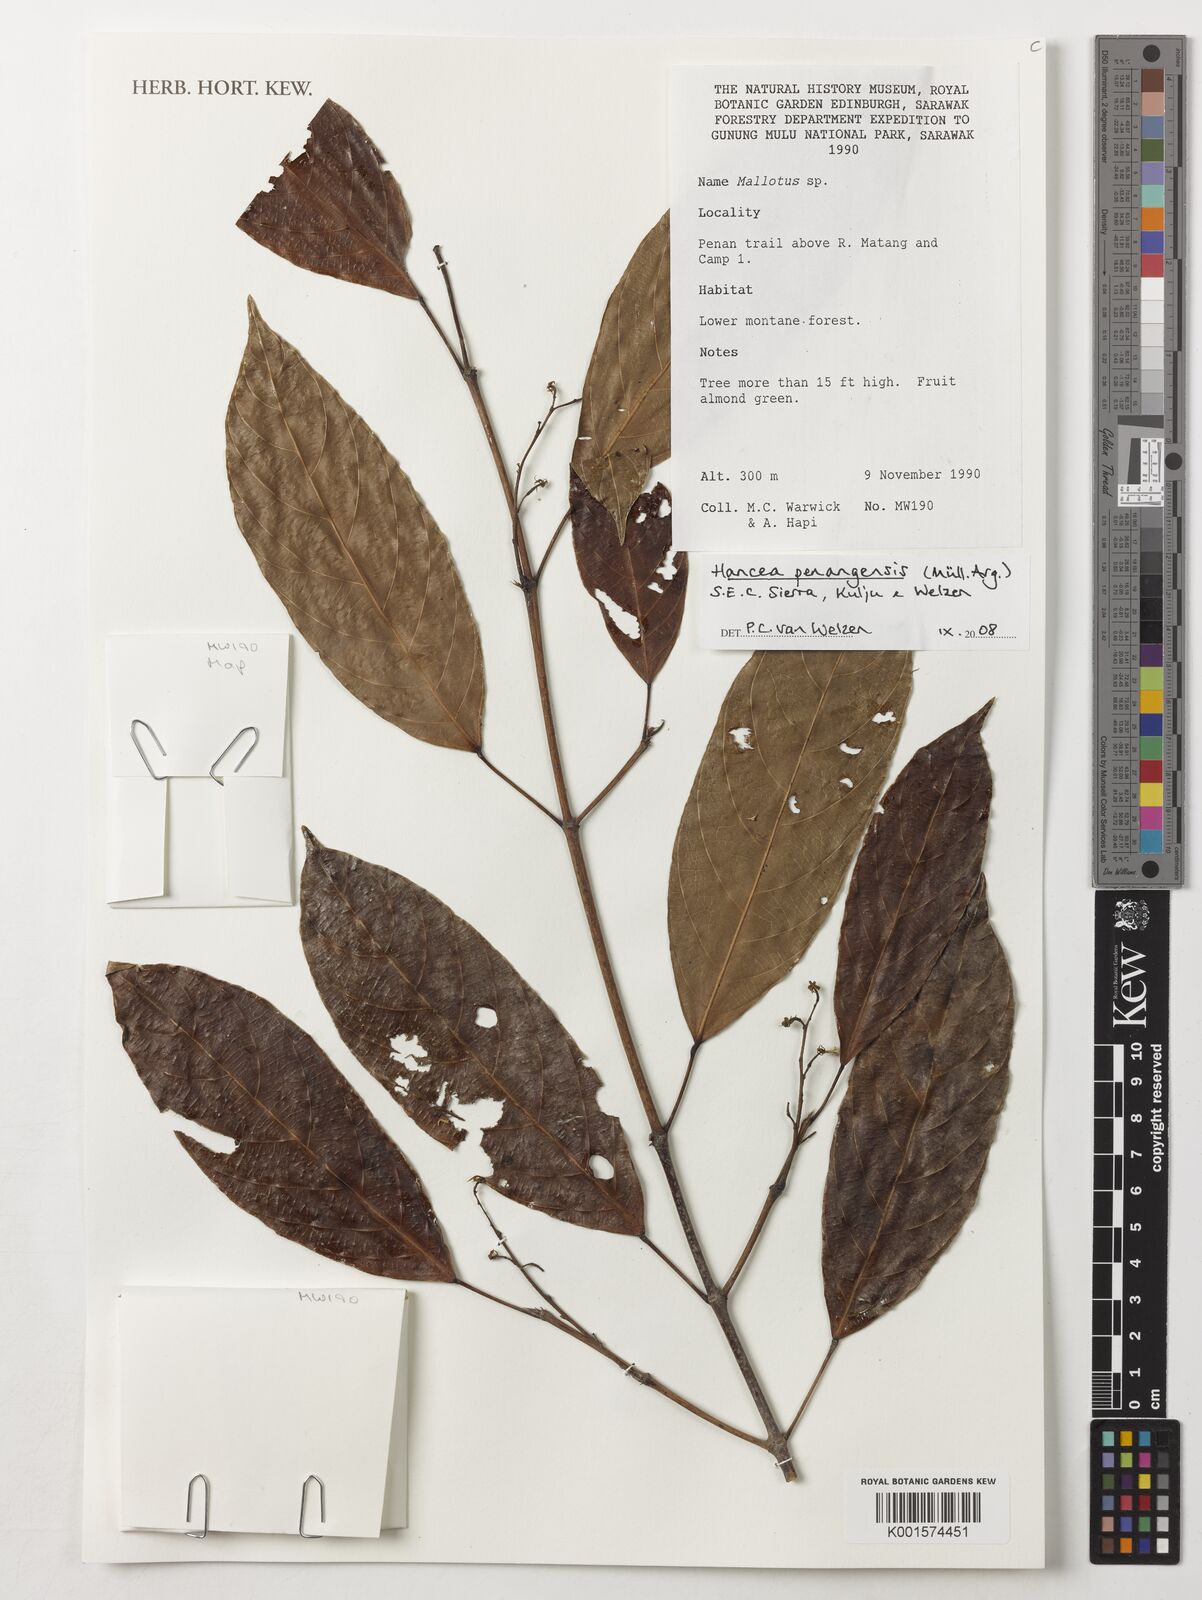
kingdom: Plantae
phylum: Tracheophyta
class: Magnoliopsida
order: Malpighiales
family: Euphorbiaceae
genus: Hancea
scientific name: Hancea penangensis
